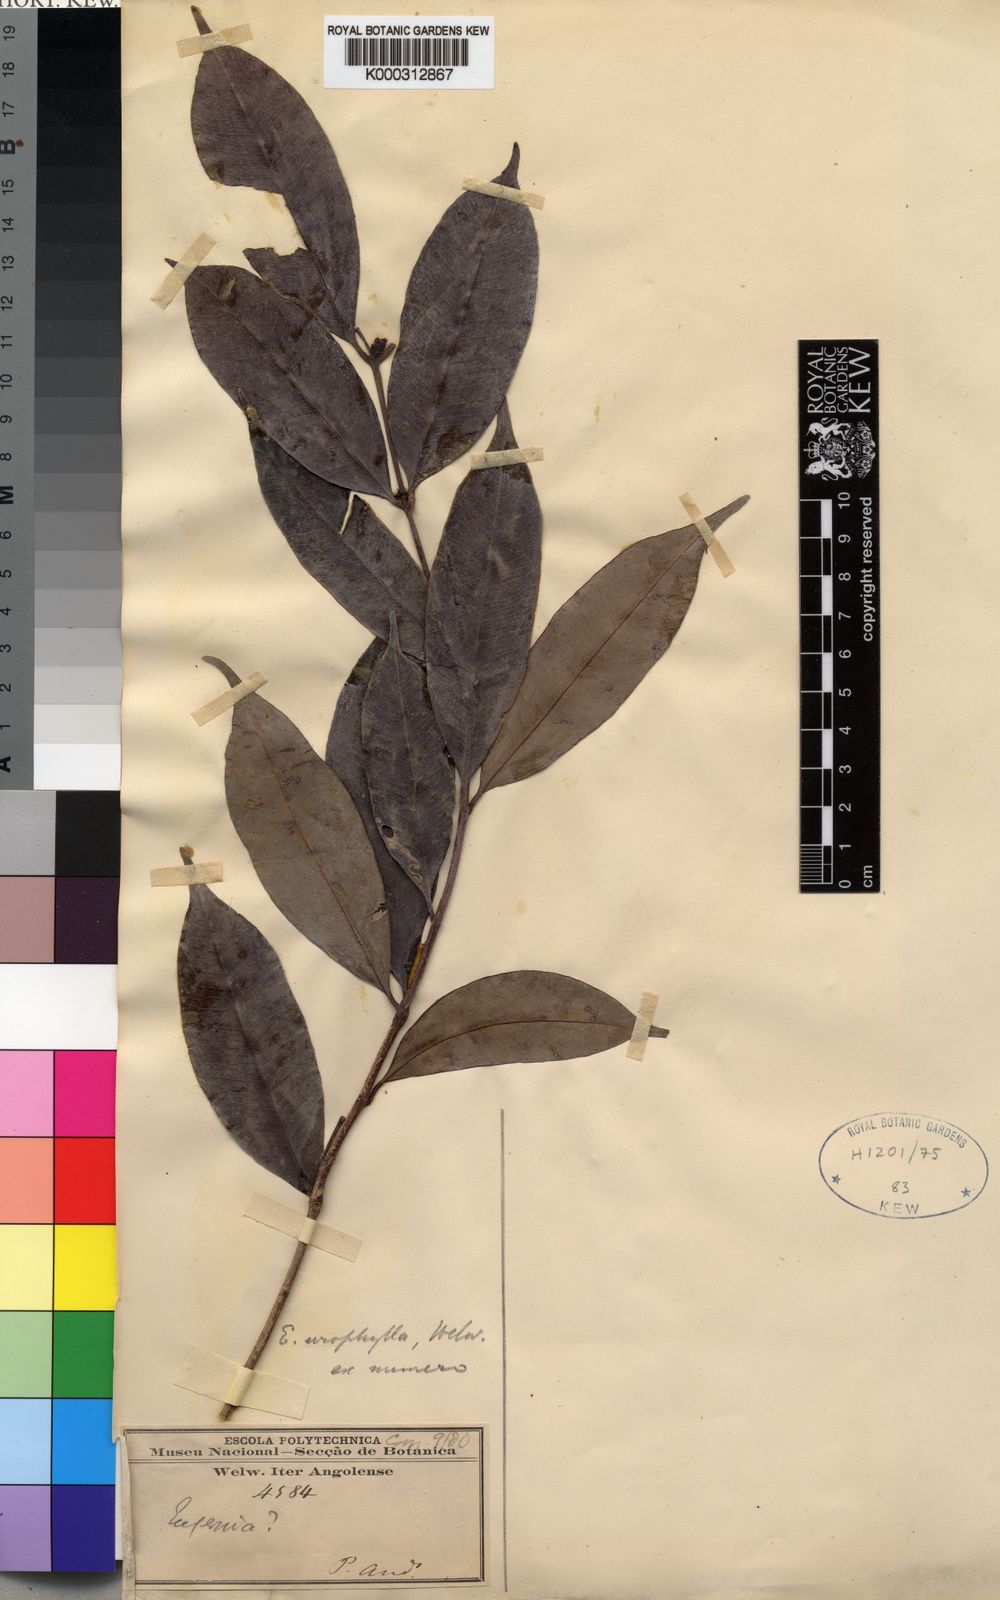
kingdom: Plantae
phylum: Tracheophyta
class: Magnoliopsida
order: Myrtales
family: Myrtaceae
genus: Syzygium
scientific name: Syzygium urophyllum
